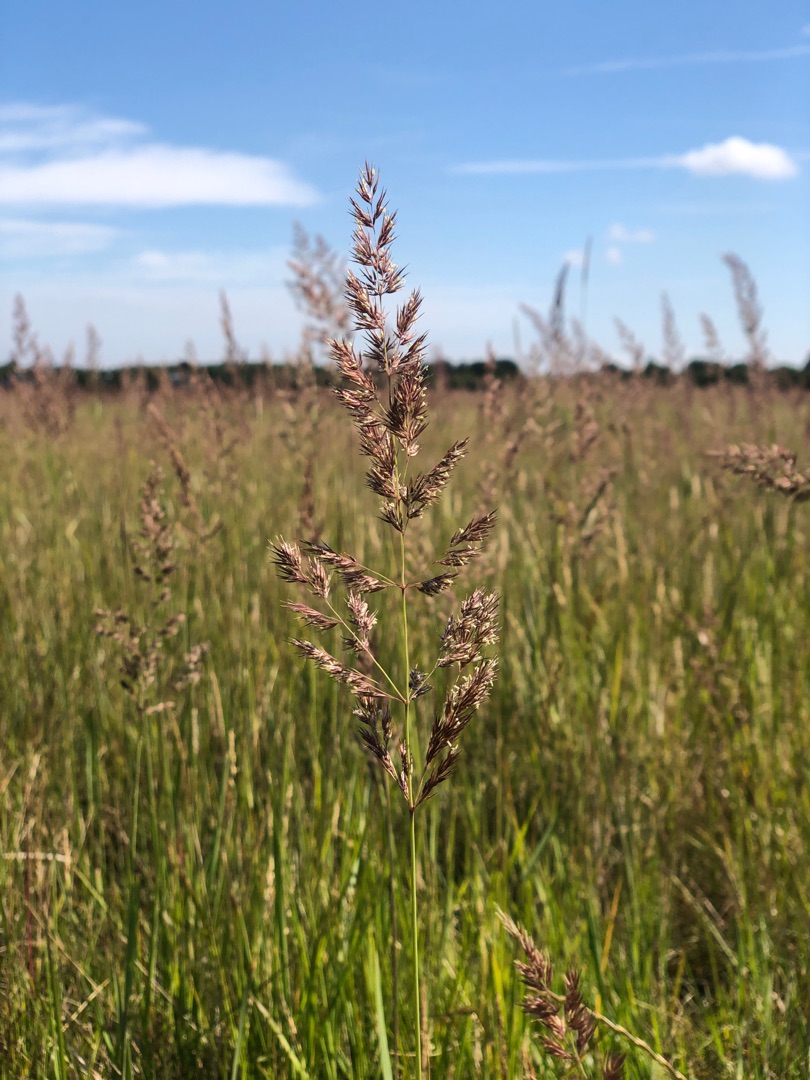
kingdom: Plantae
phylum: Tracheophyta
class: Liliopsida
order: Poales
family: Poaceae
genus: Calamagrostis
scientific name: Calamagrostis epigejos
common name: Bjerg-rørhvene
